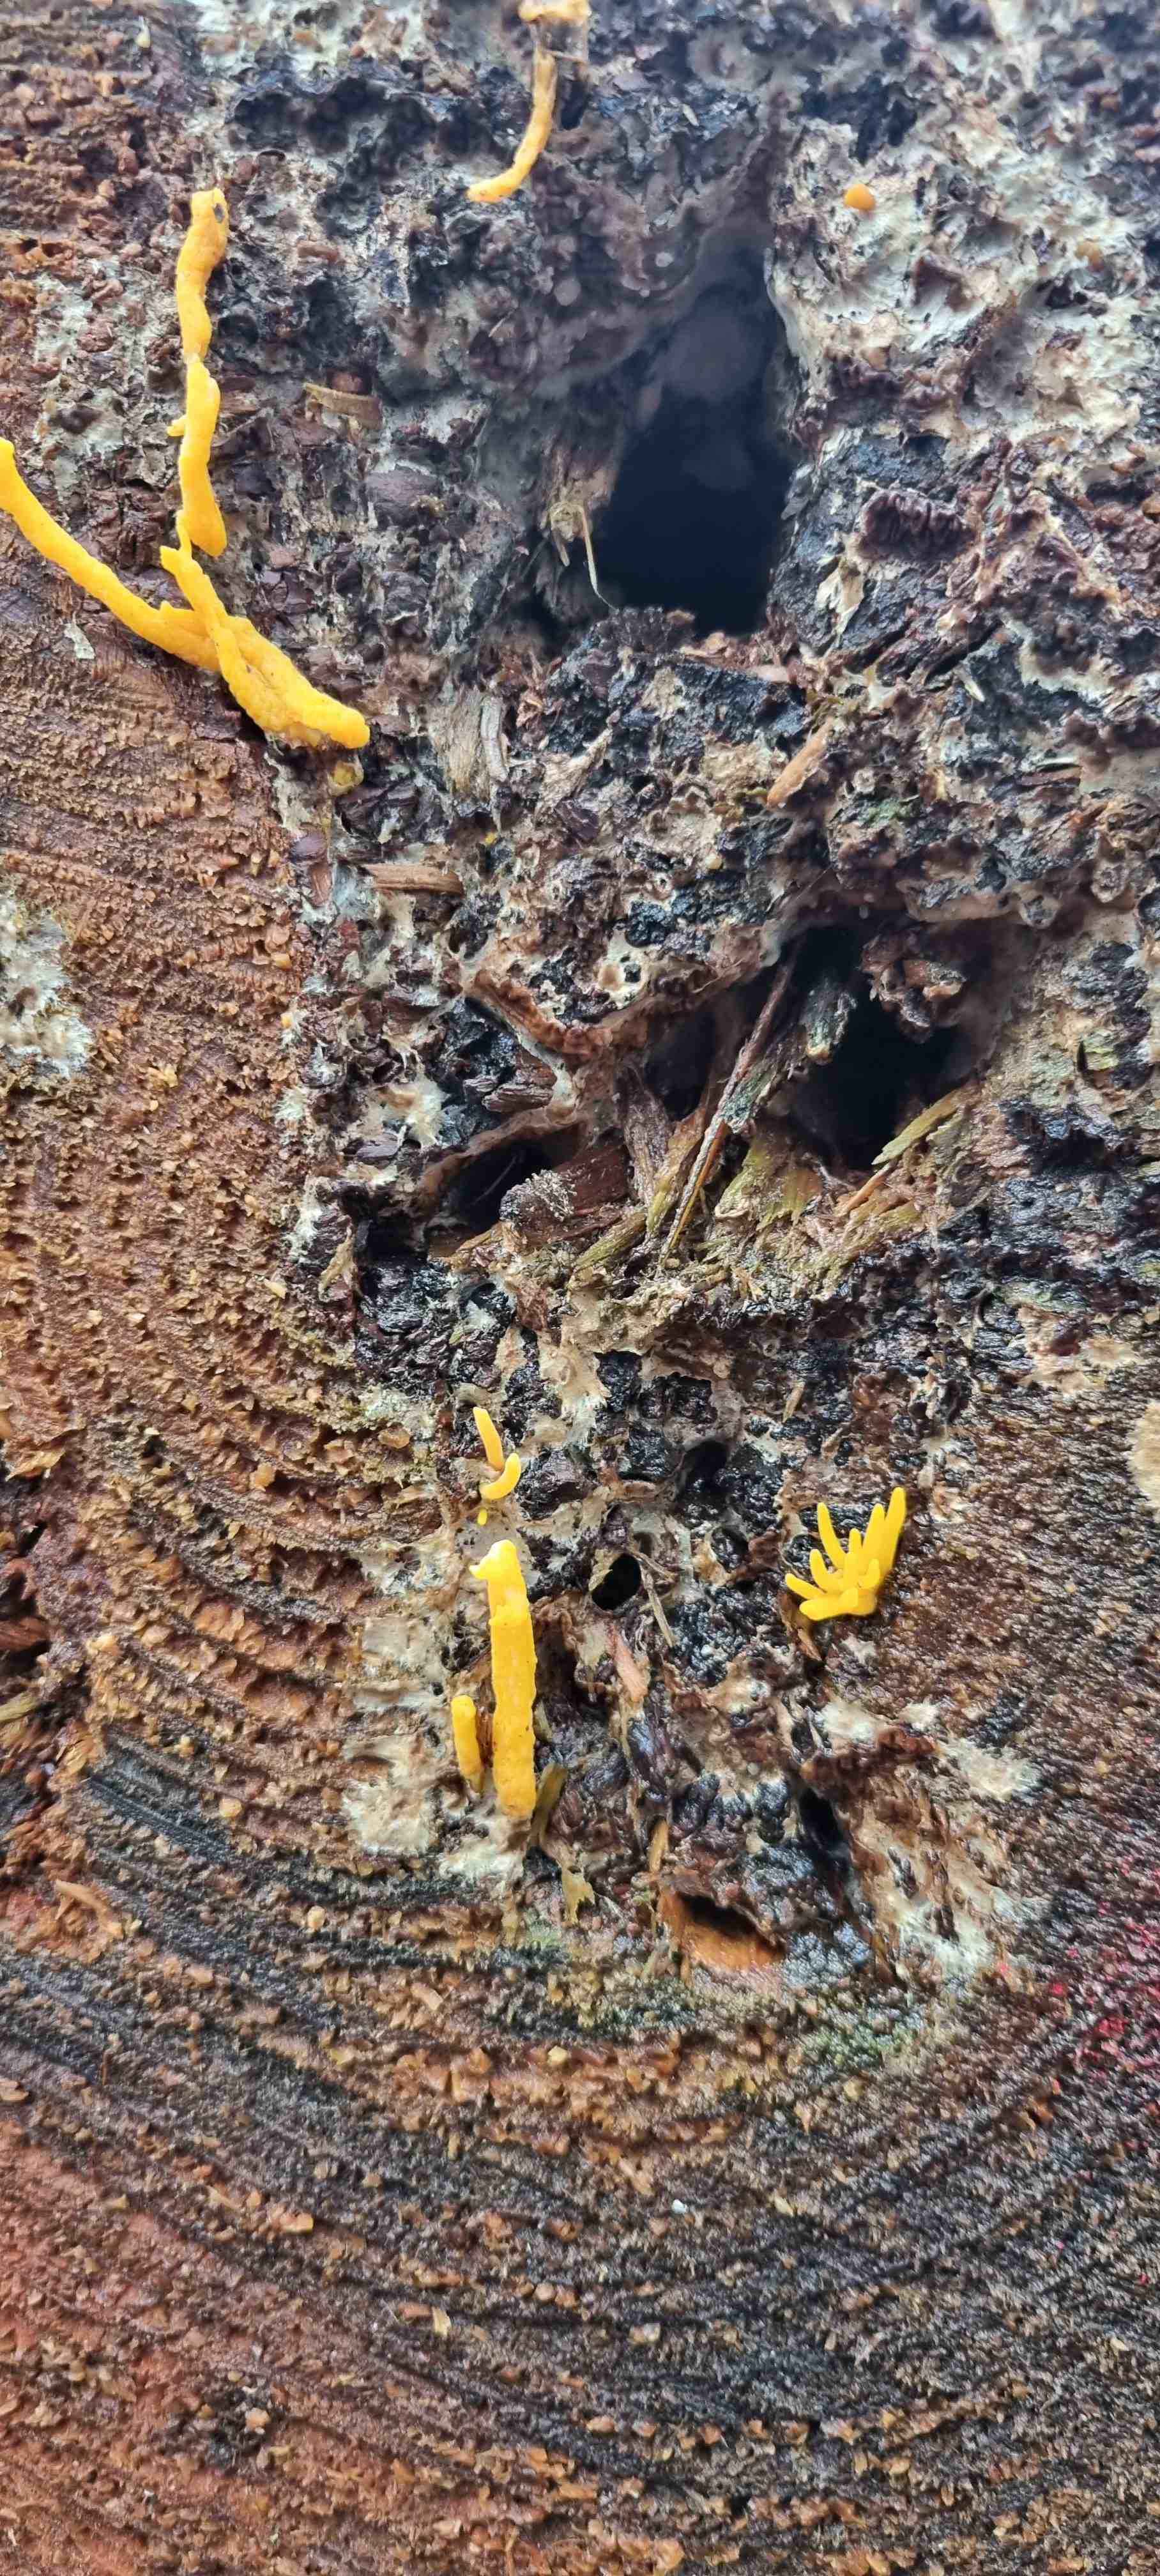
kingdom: Fungi
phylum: Basidiomycota
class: Dacrymycetes
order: Dacrymycetales
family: Dacrymycetaceae
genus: Calocera
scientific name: Calocera viscosa
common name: almindelig guldgaffel
